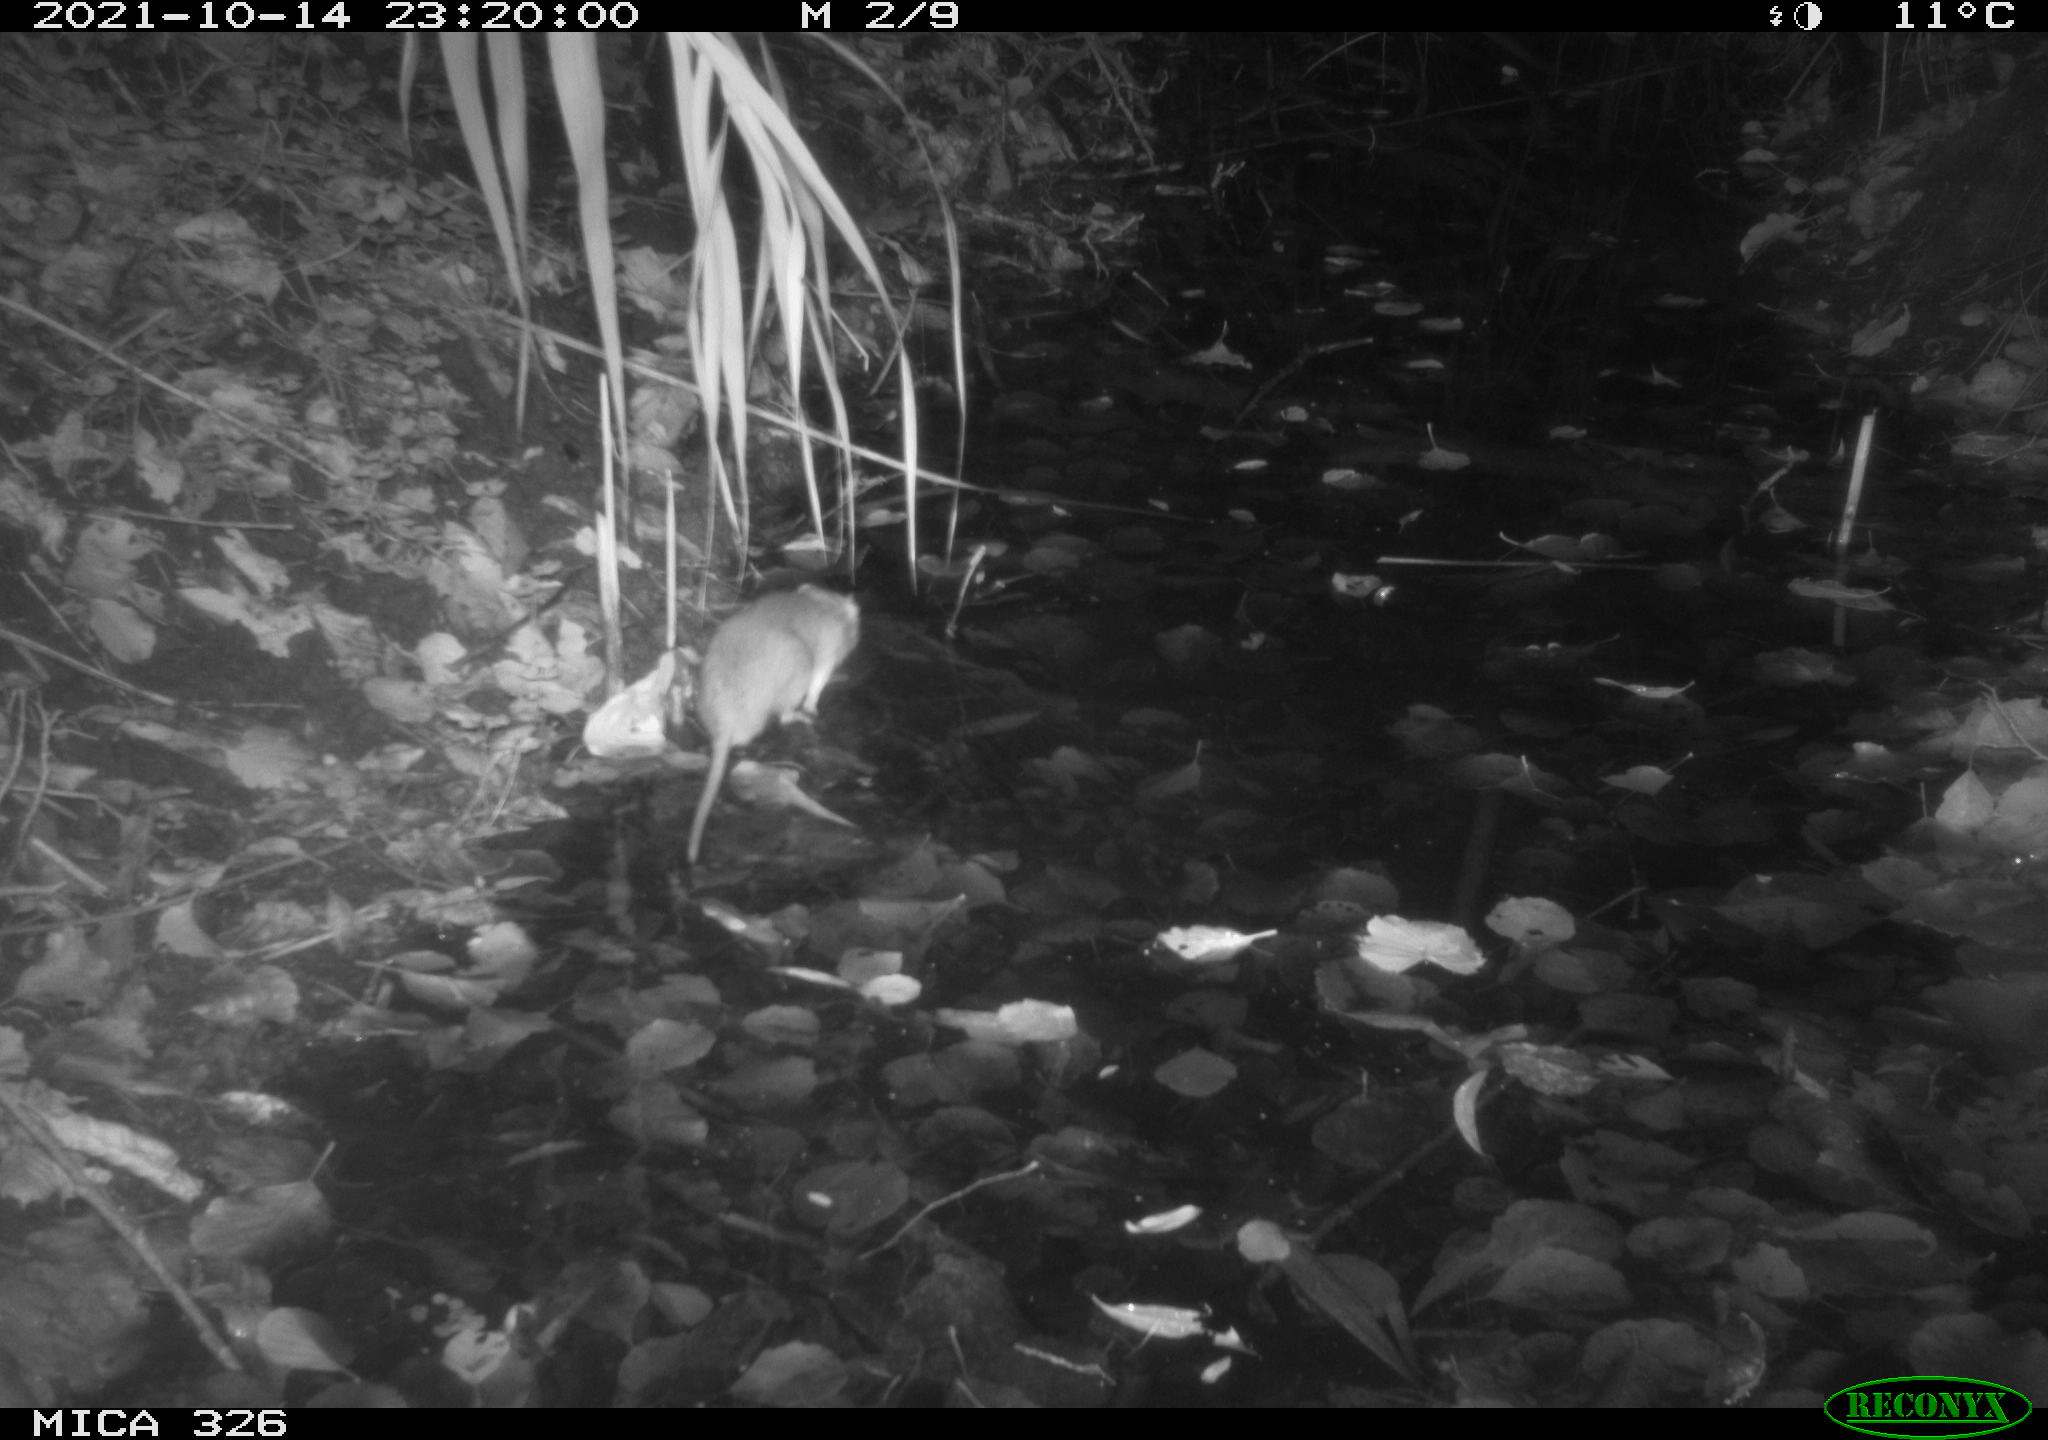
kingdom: Animalia
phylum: Chordata
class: Mammalia
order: Rodentia
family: Muridae
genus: Rattus
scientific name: Rattus norvegicus
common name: Brown rat
